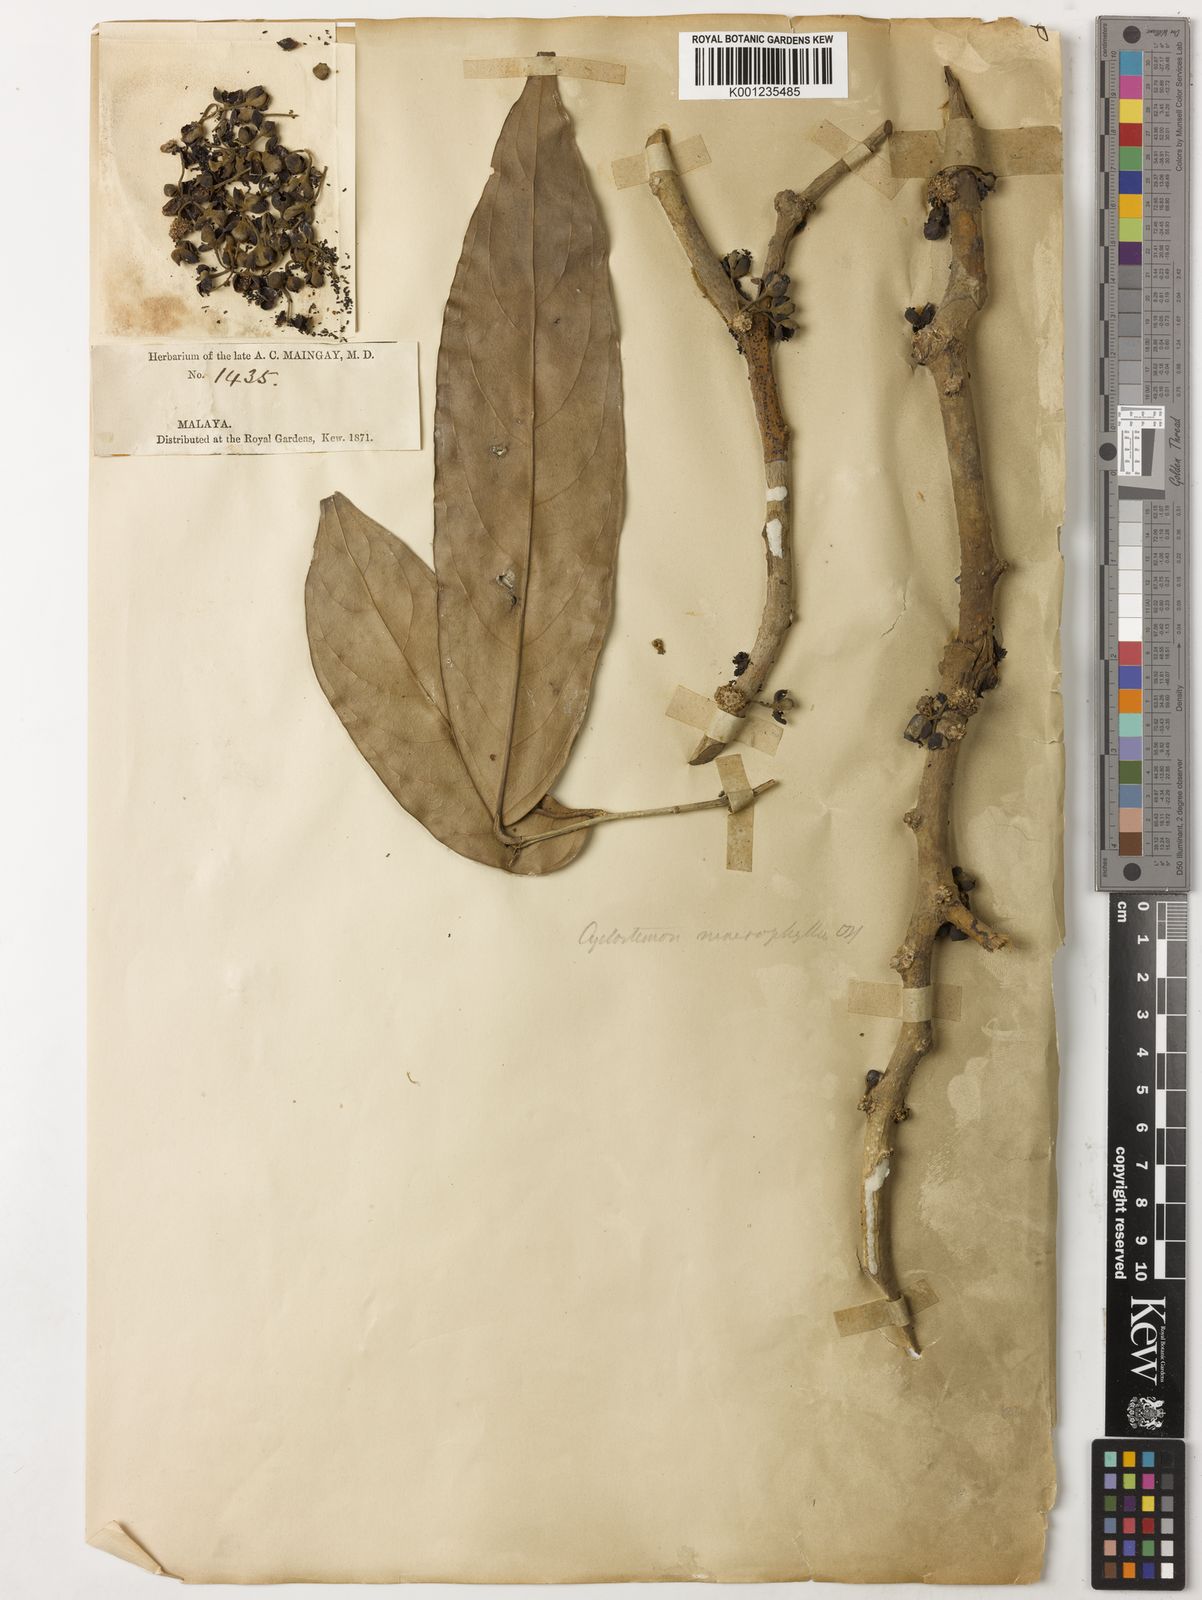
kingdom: Plantae
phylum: Tracheophyta
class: Magnoliopsida
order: Malpighiales
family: Putranjivaceae
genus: Drypetes
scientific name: Drypetes longifolia
